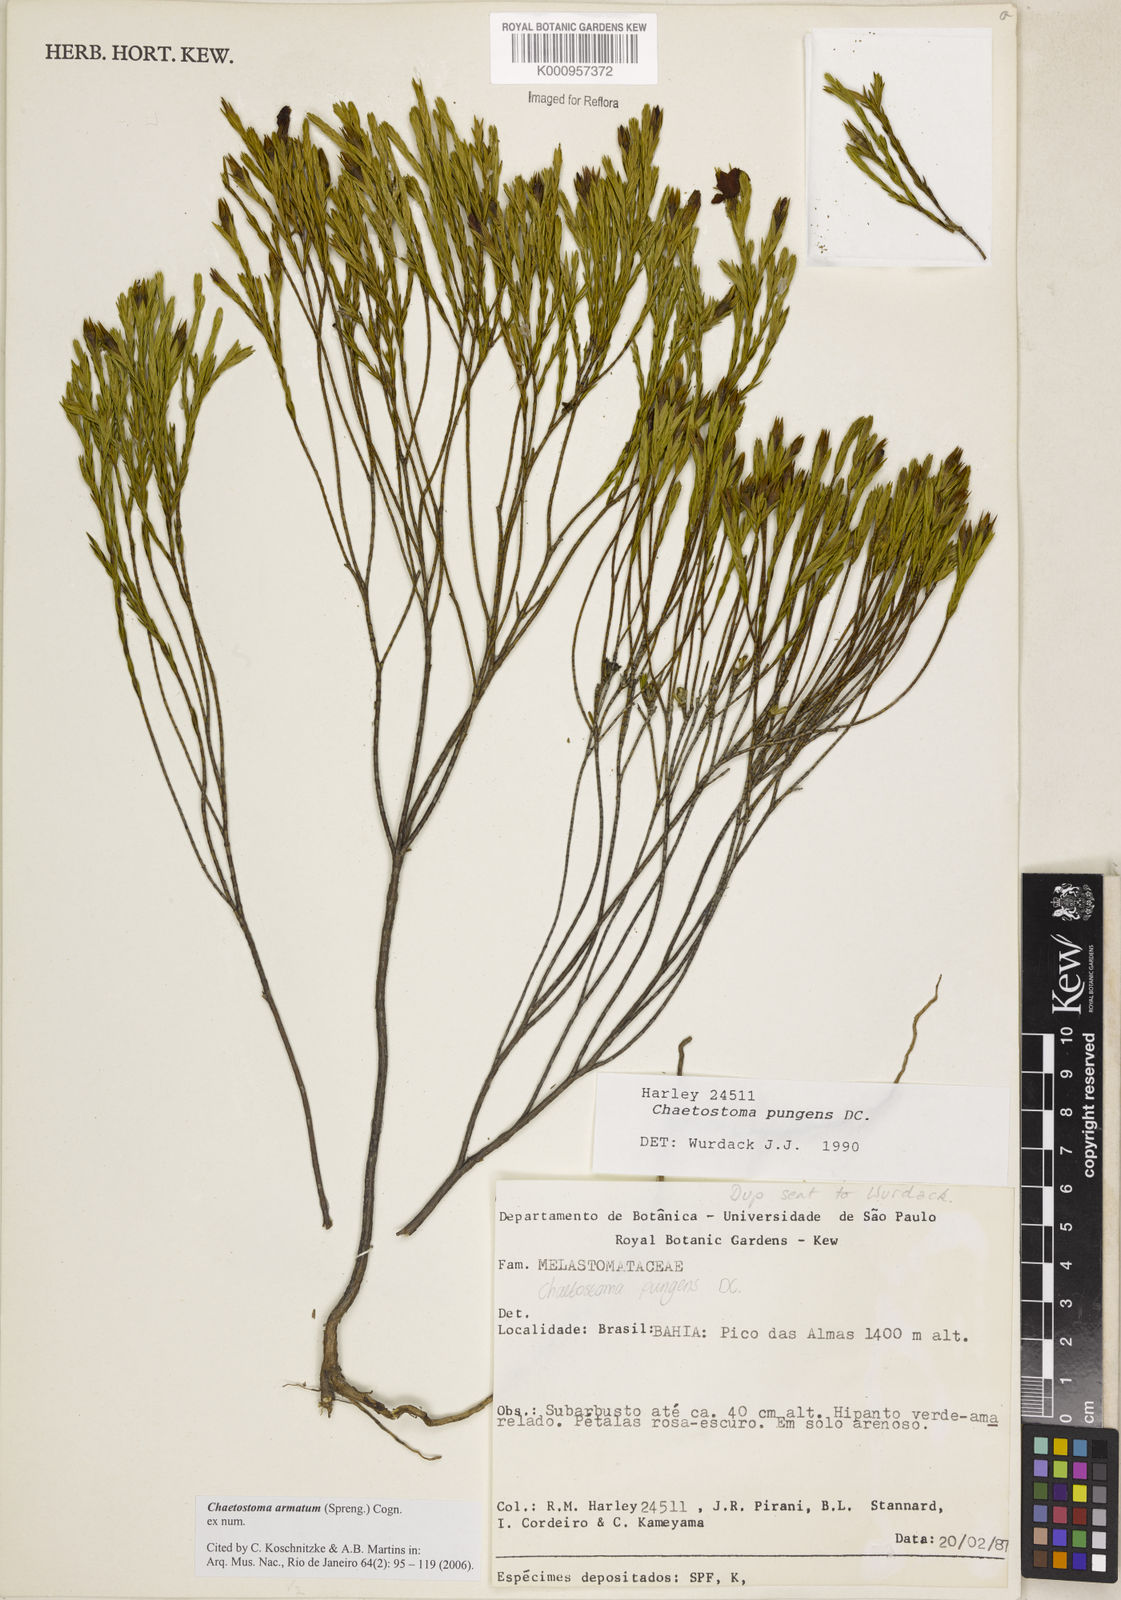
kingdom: Plantae
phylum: Tracheophyta
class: Magnoliopsida
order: Myrtales
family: Melastomataceae
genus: Microlicia
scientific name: Microlicia armata
